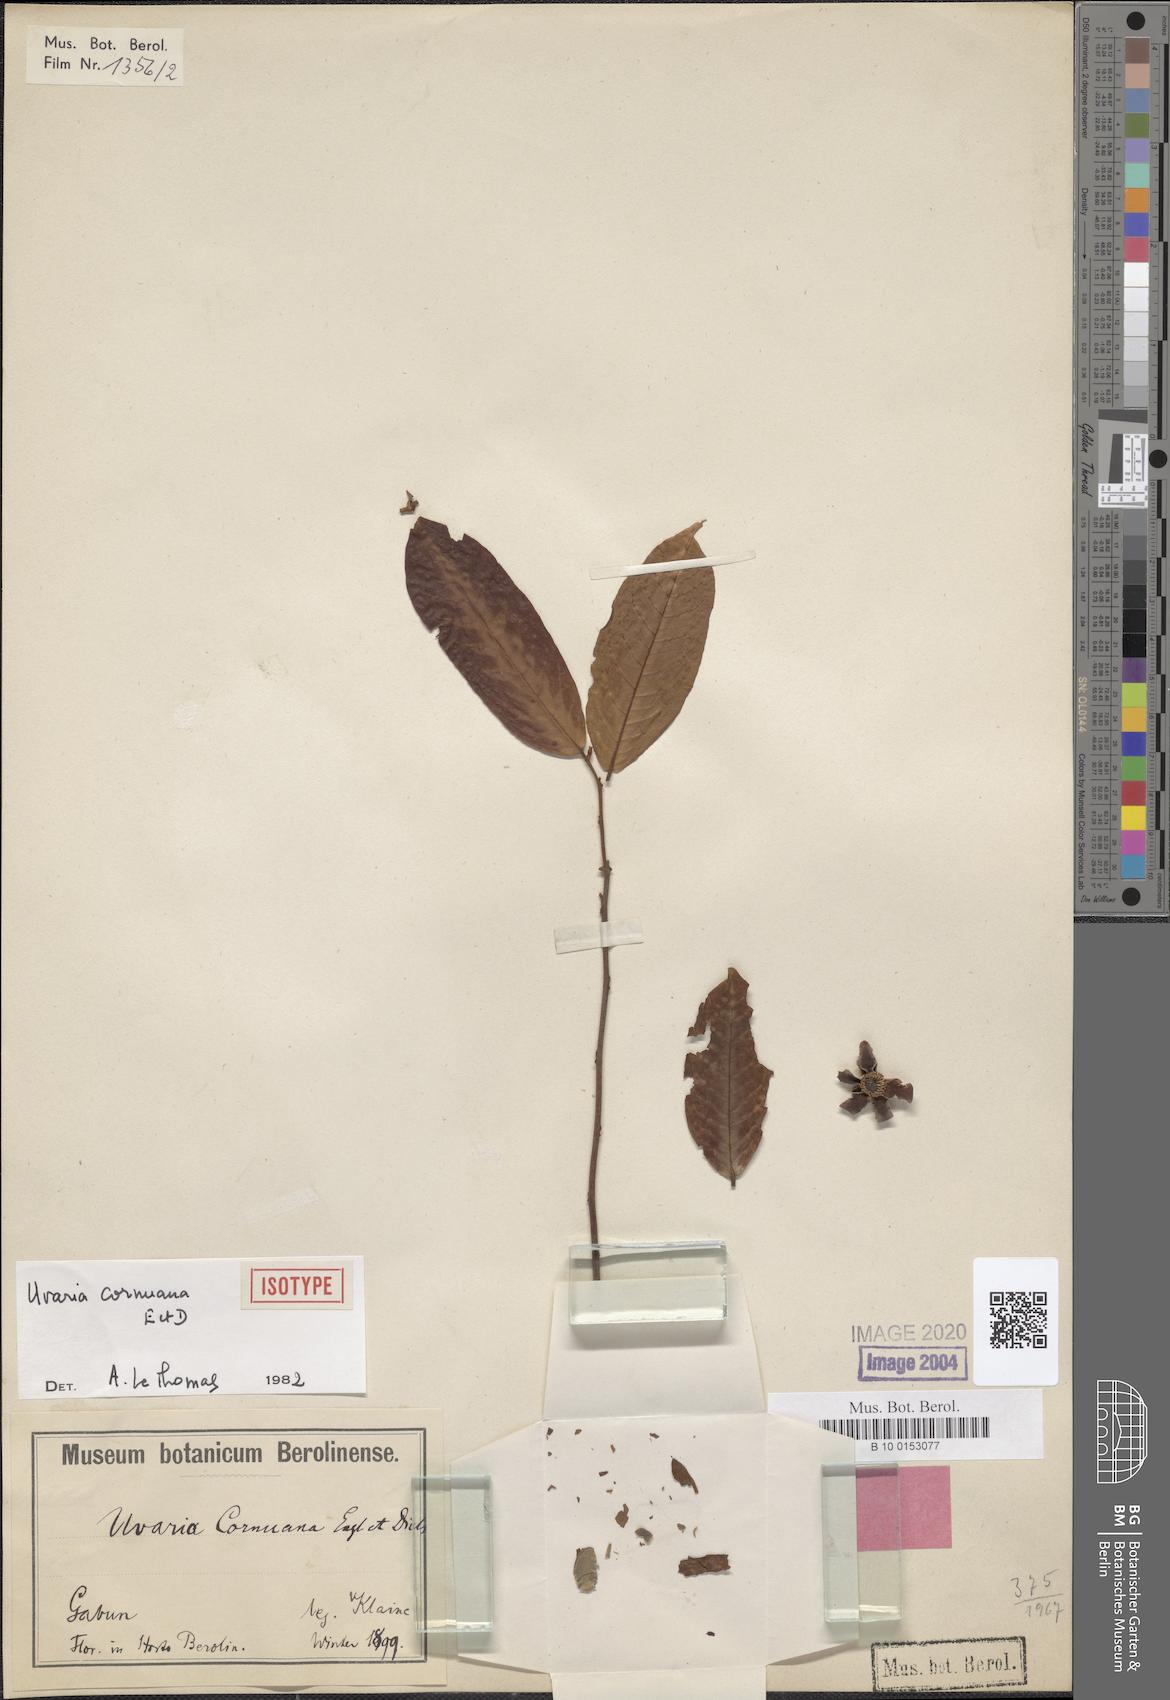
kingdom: Plantae
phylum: Tracheophyta
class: Magnoliopsida
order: Magnoliales
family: Annonaceae
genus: Uvaria
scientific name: Uvaria cornuana
